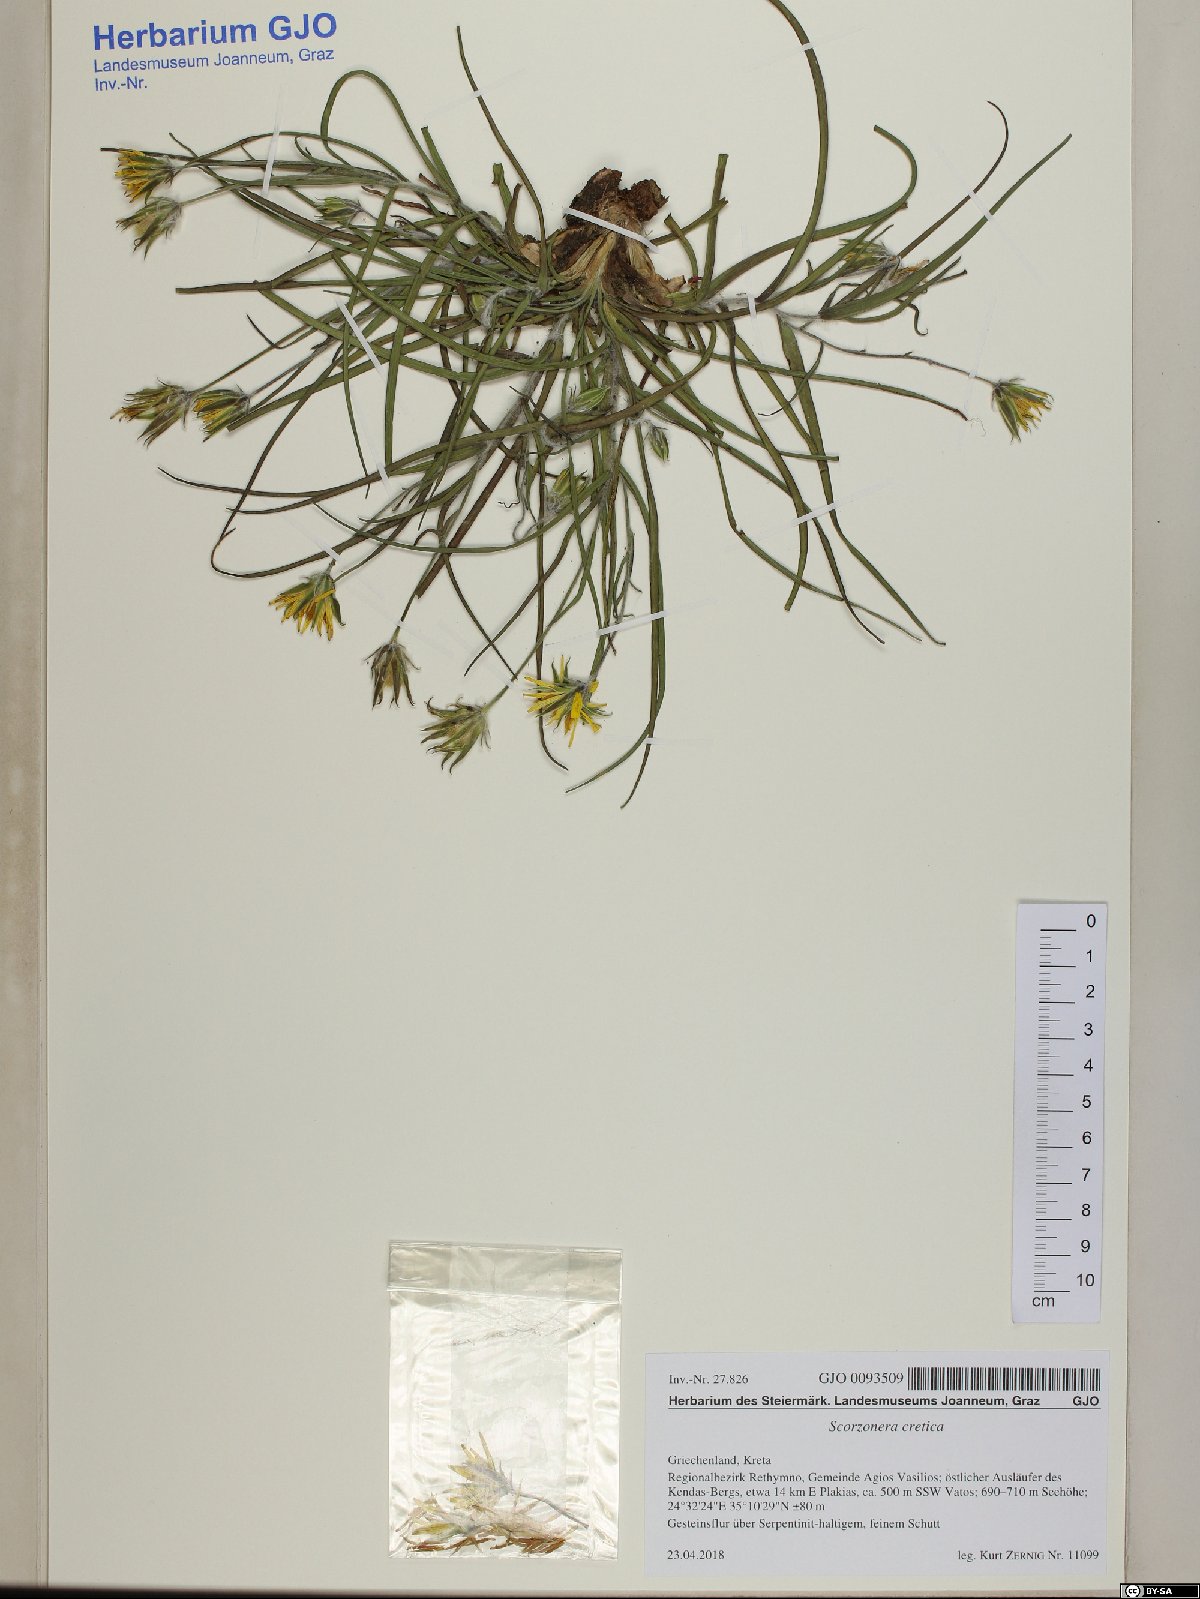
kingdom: Plantae
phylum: Tracheophyta
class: Magnoliopsida
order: Asterales
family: Asteraceae
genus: Gelasia
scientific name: Gelasia cretica
